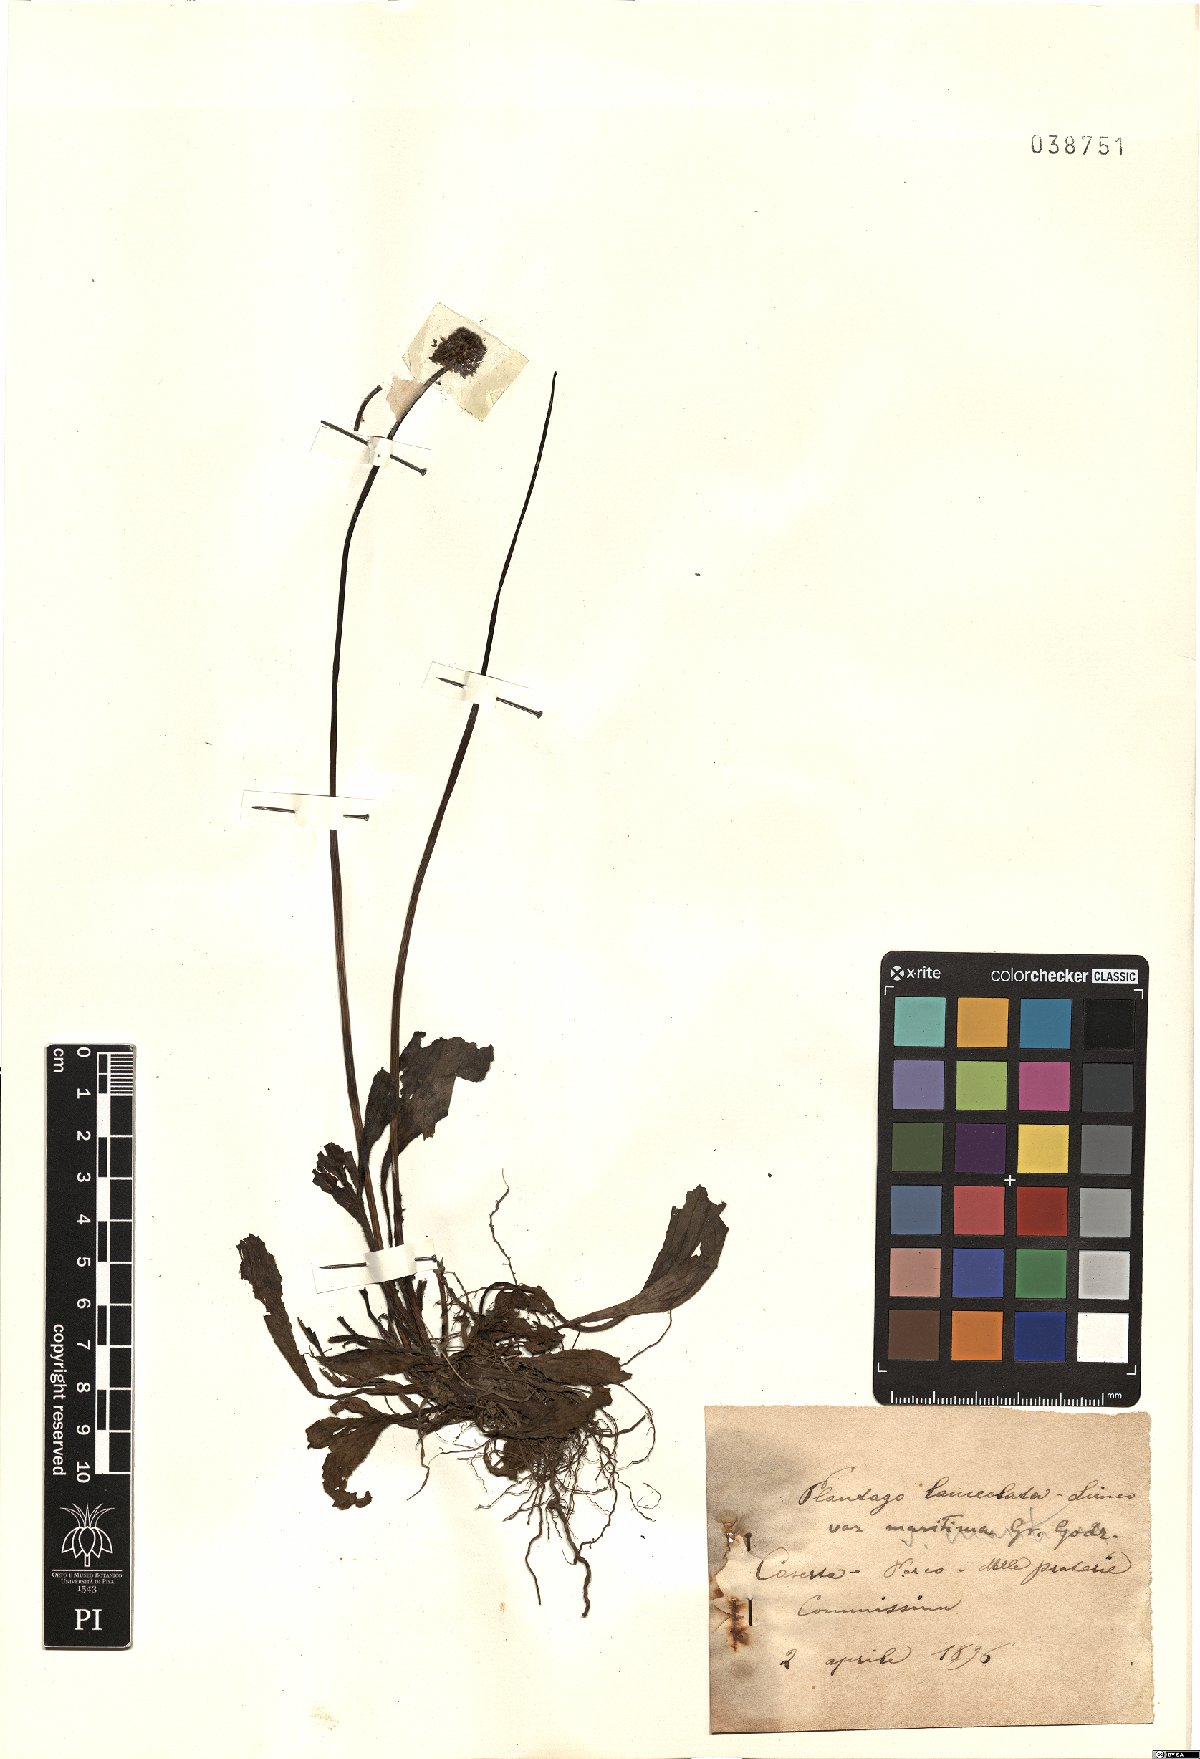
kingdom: Plantae
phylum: Tracheophyta
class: Magnoliopsida
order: Lamiales
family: Plantaginaceae
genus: Plantago
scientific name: Plantago lanceolata
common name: Ribwort plantain
